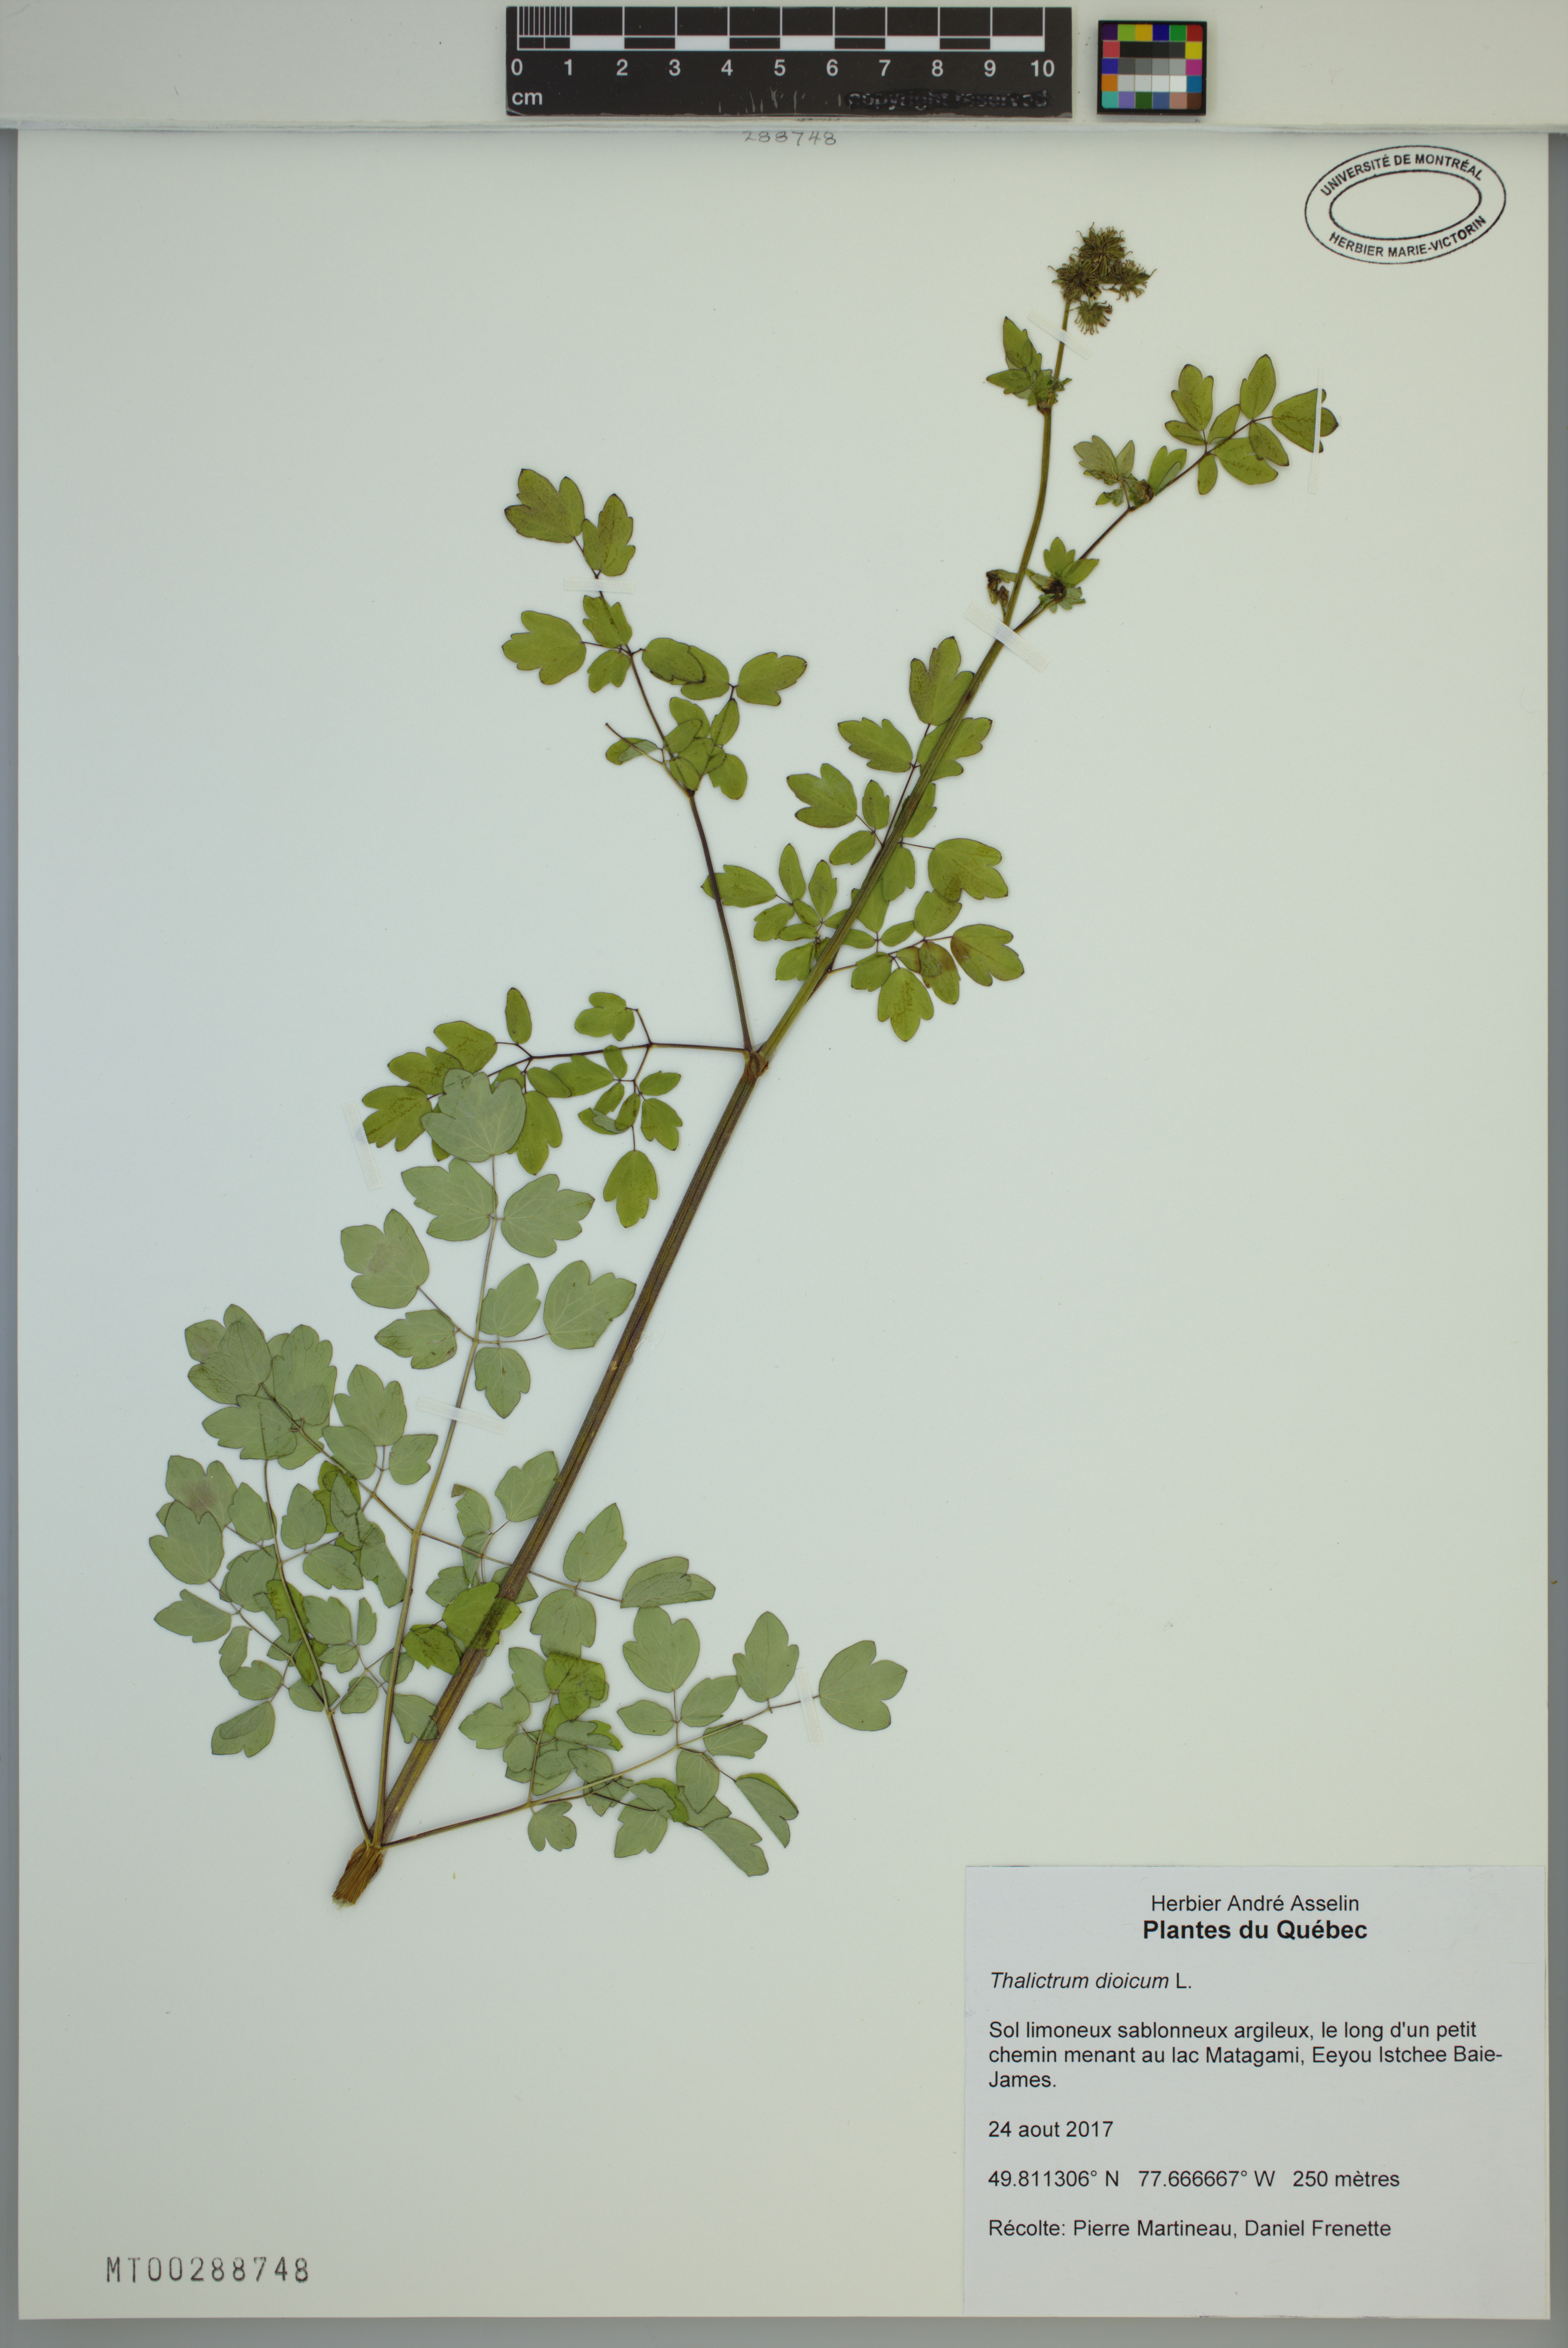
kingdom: Plantae
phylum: Tracheophyta
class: Magnoliopsida
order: Ranunculales
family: Ranunculaceae
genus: Thalictrum
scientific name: Thalictrum dioicum
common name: Early meadow-rue
